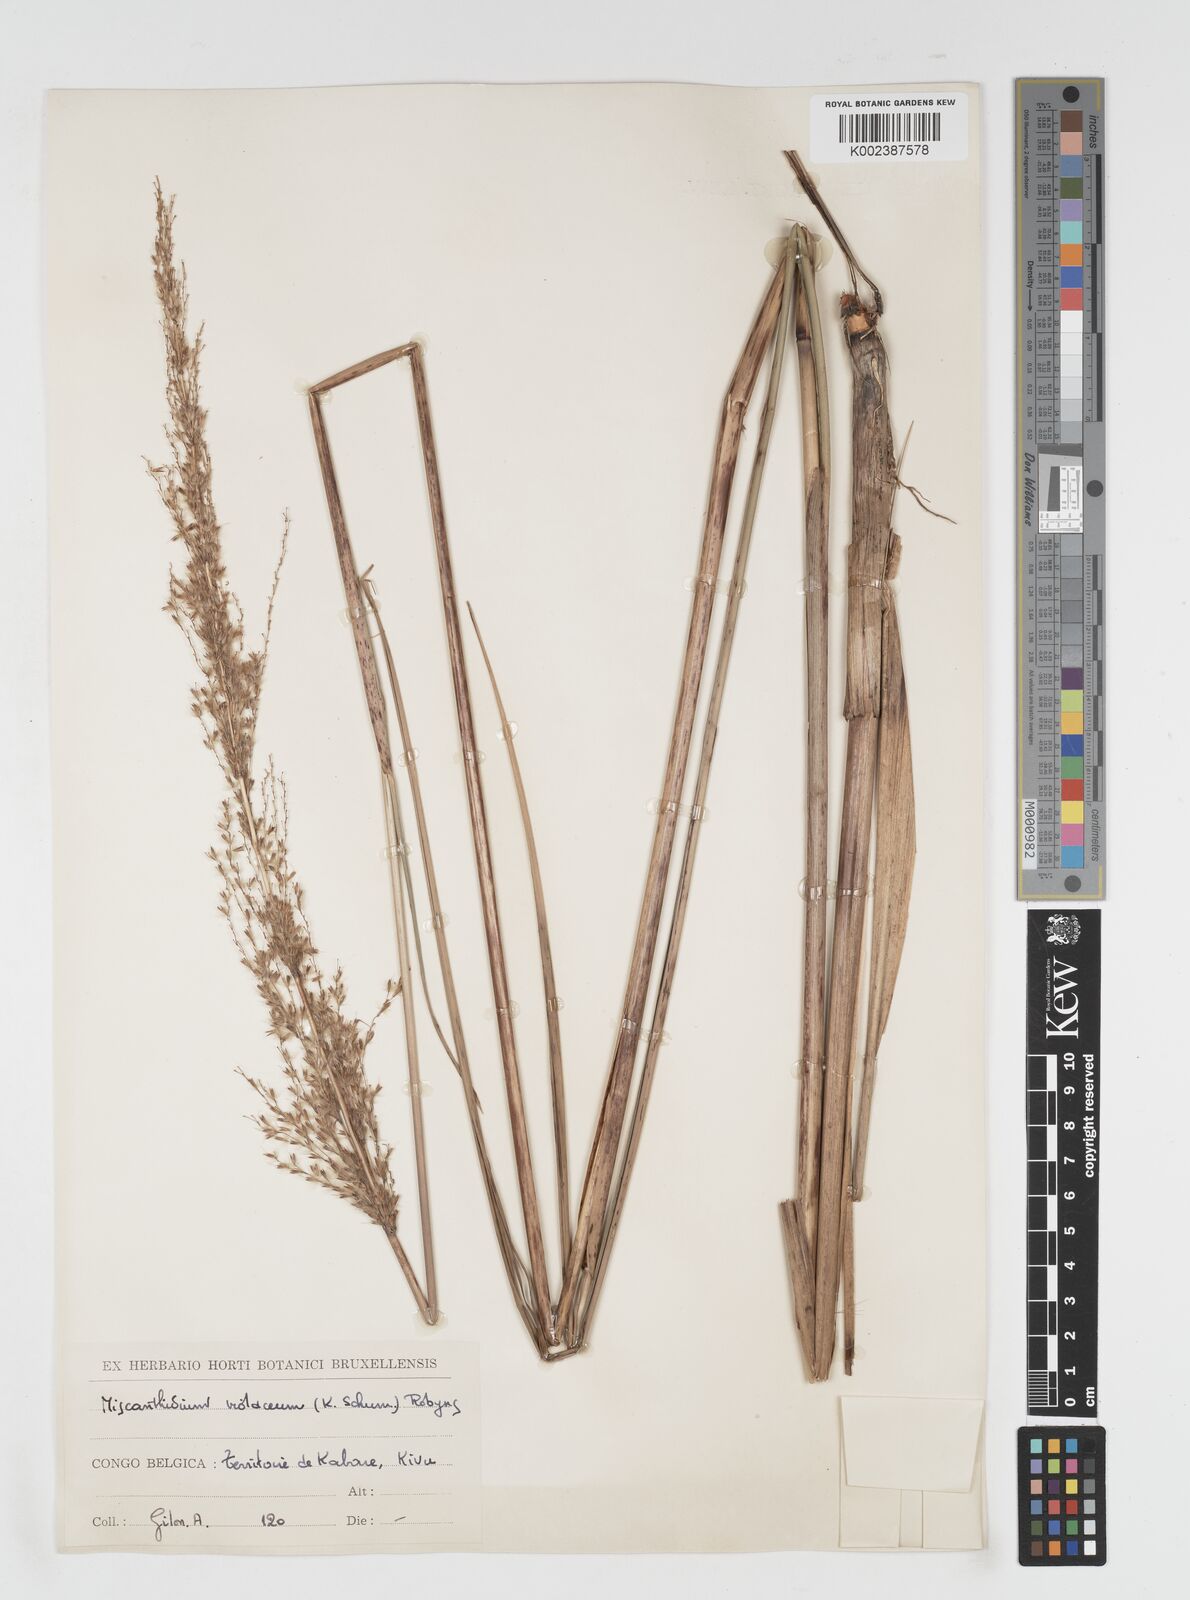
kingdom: Plantae
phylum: Tracheophyta
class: Liliopsida
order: Poales
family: Poaceae
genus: Miscanthidium
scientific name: Miscanthidium violaceum
